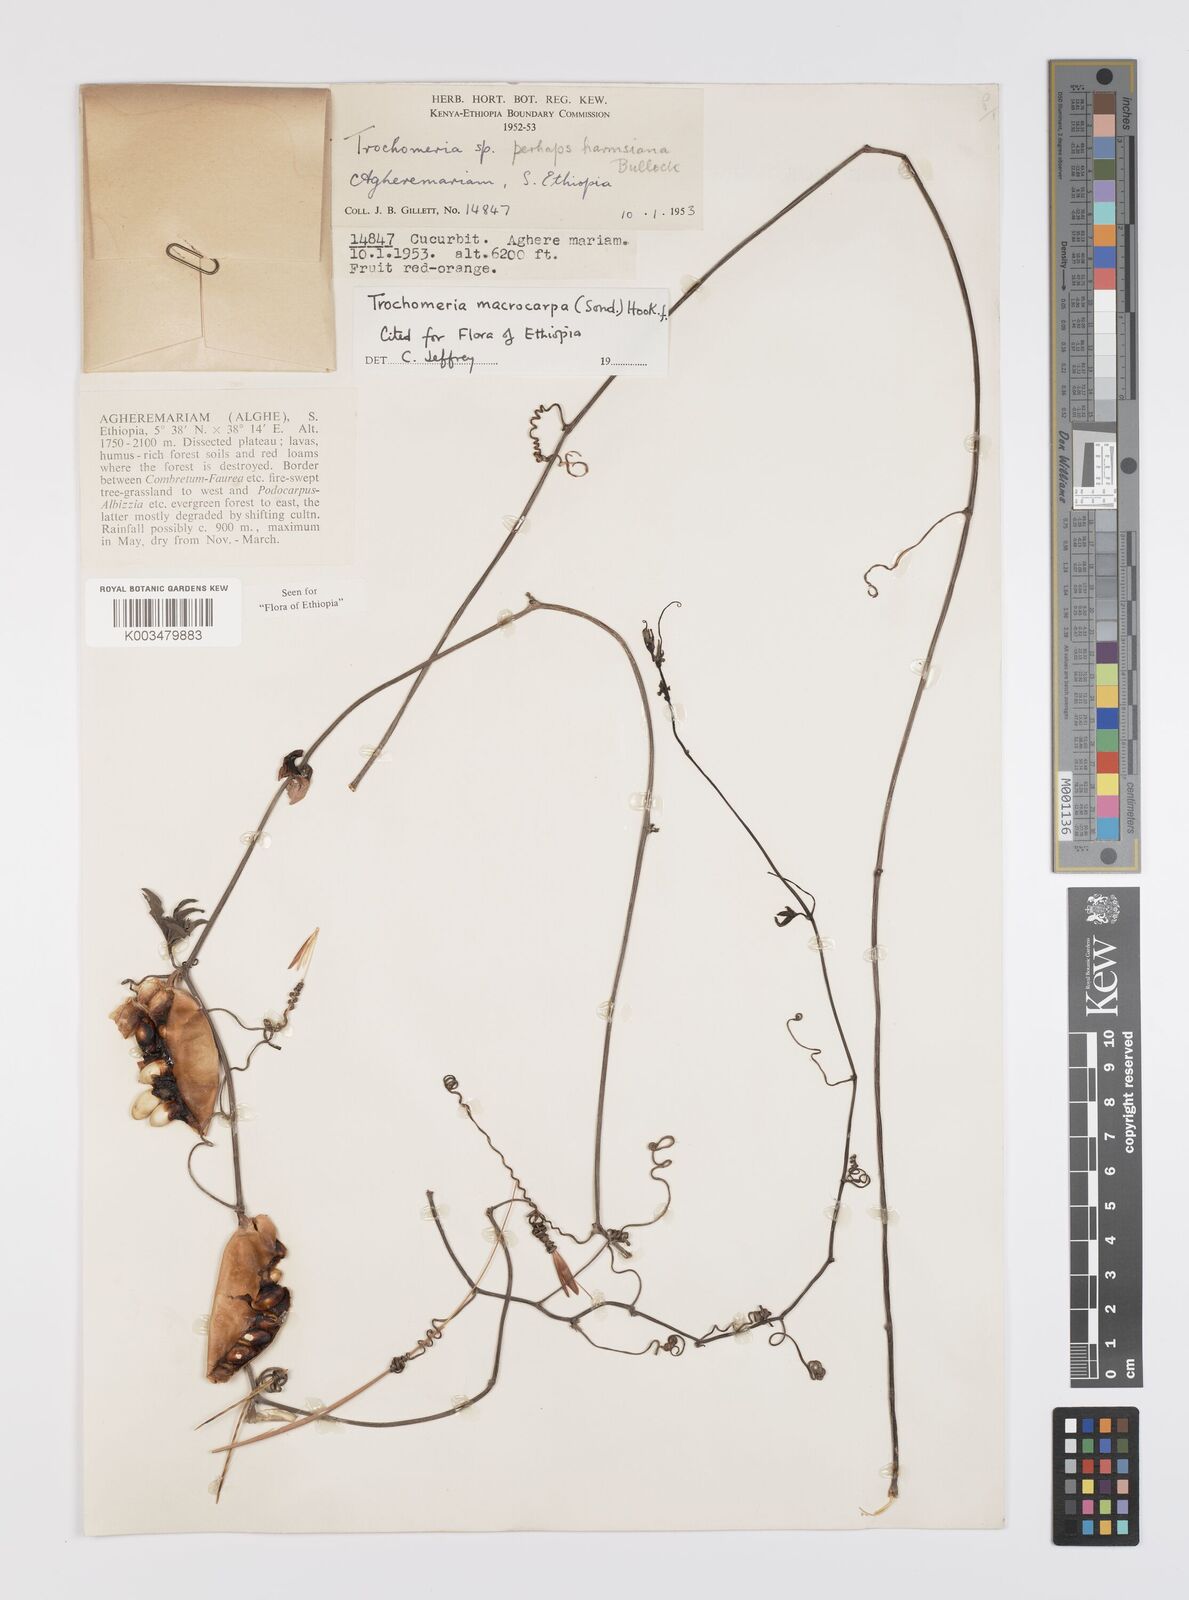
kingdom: Plantae
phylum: Tracheophyta
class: Magnoliopsida
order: Cucurbitales
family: Cucurbitaceae
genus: Trochomeria
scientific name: Trochomeria macrocarpa
